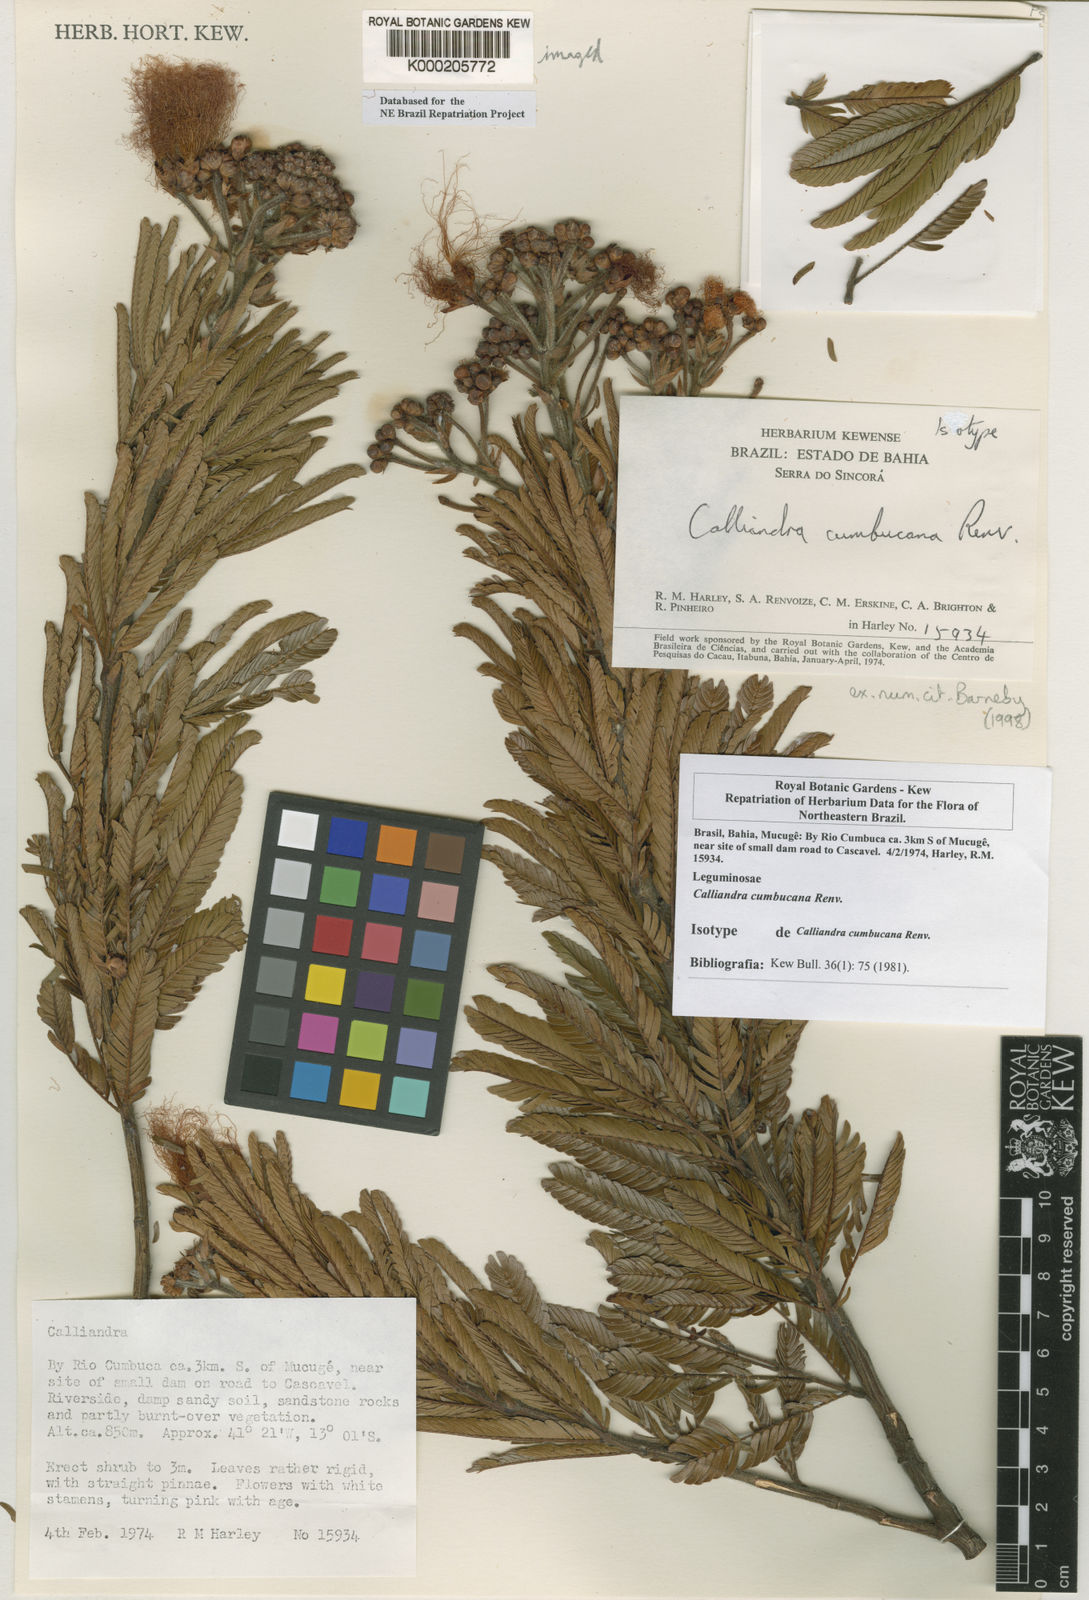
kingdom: Plantae
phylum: Tracheophyta
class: Magnoliopsida
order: Fabales
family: Fabaceae
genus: Calliandra
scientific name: Calliandra cumbucana
